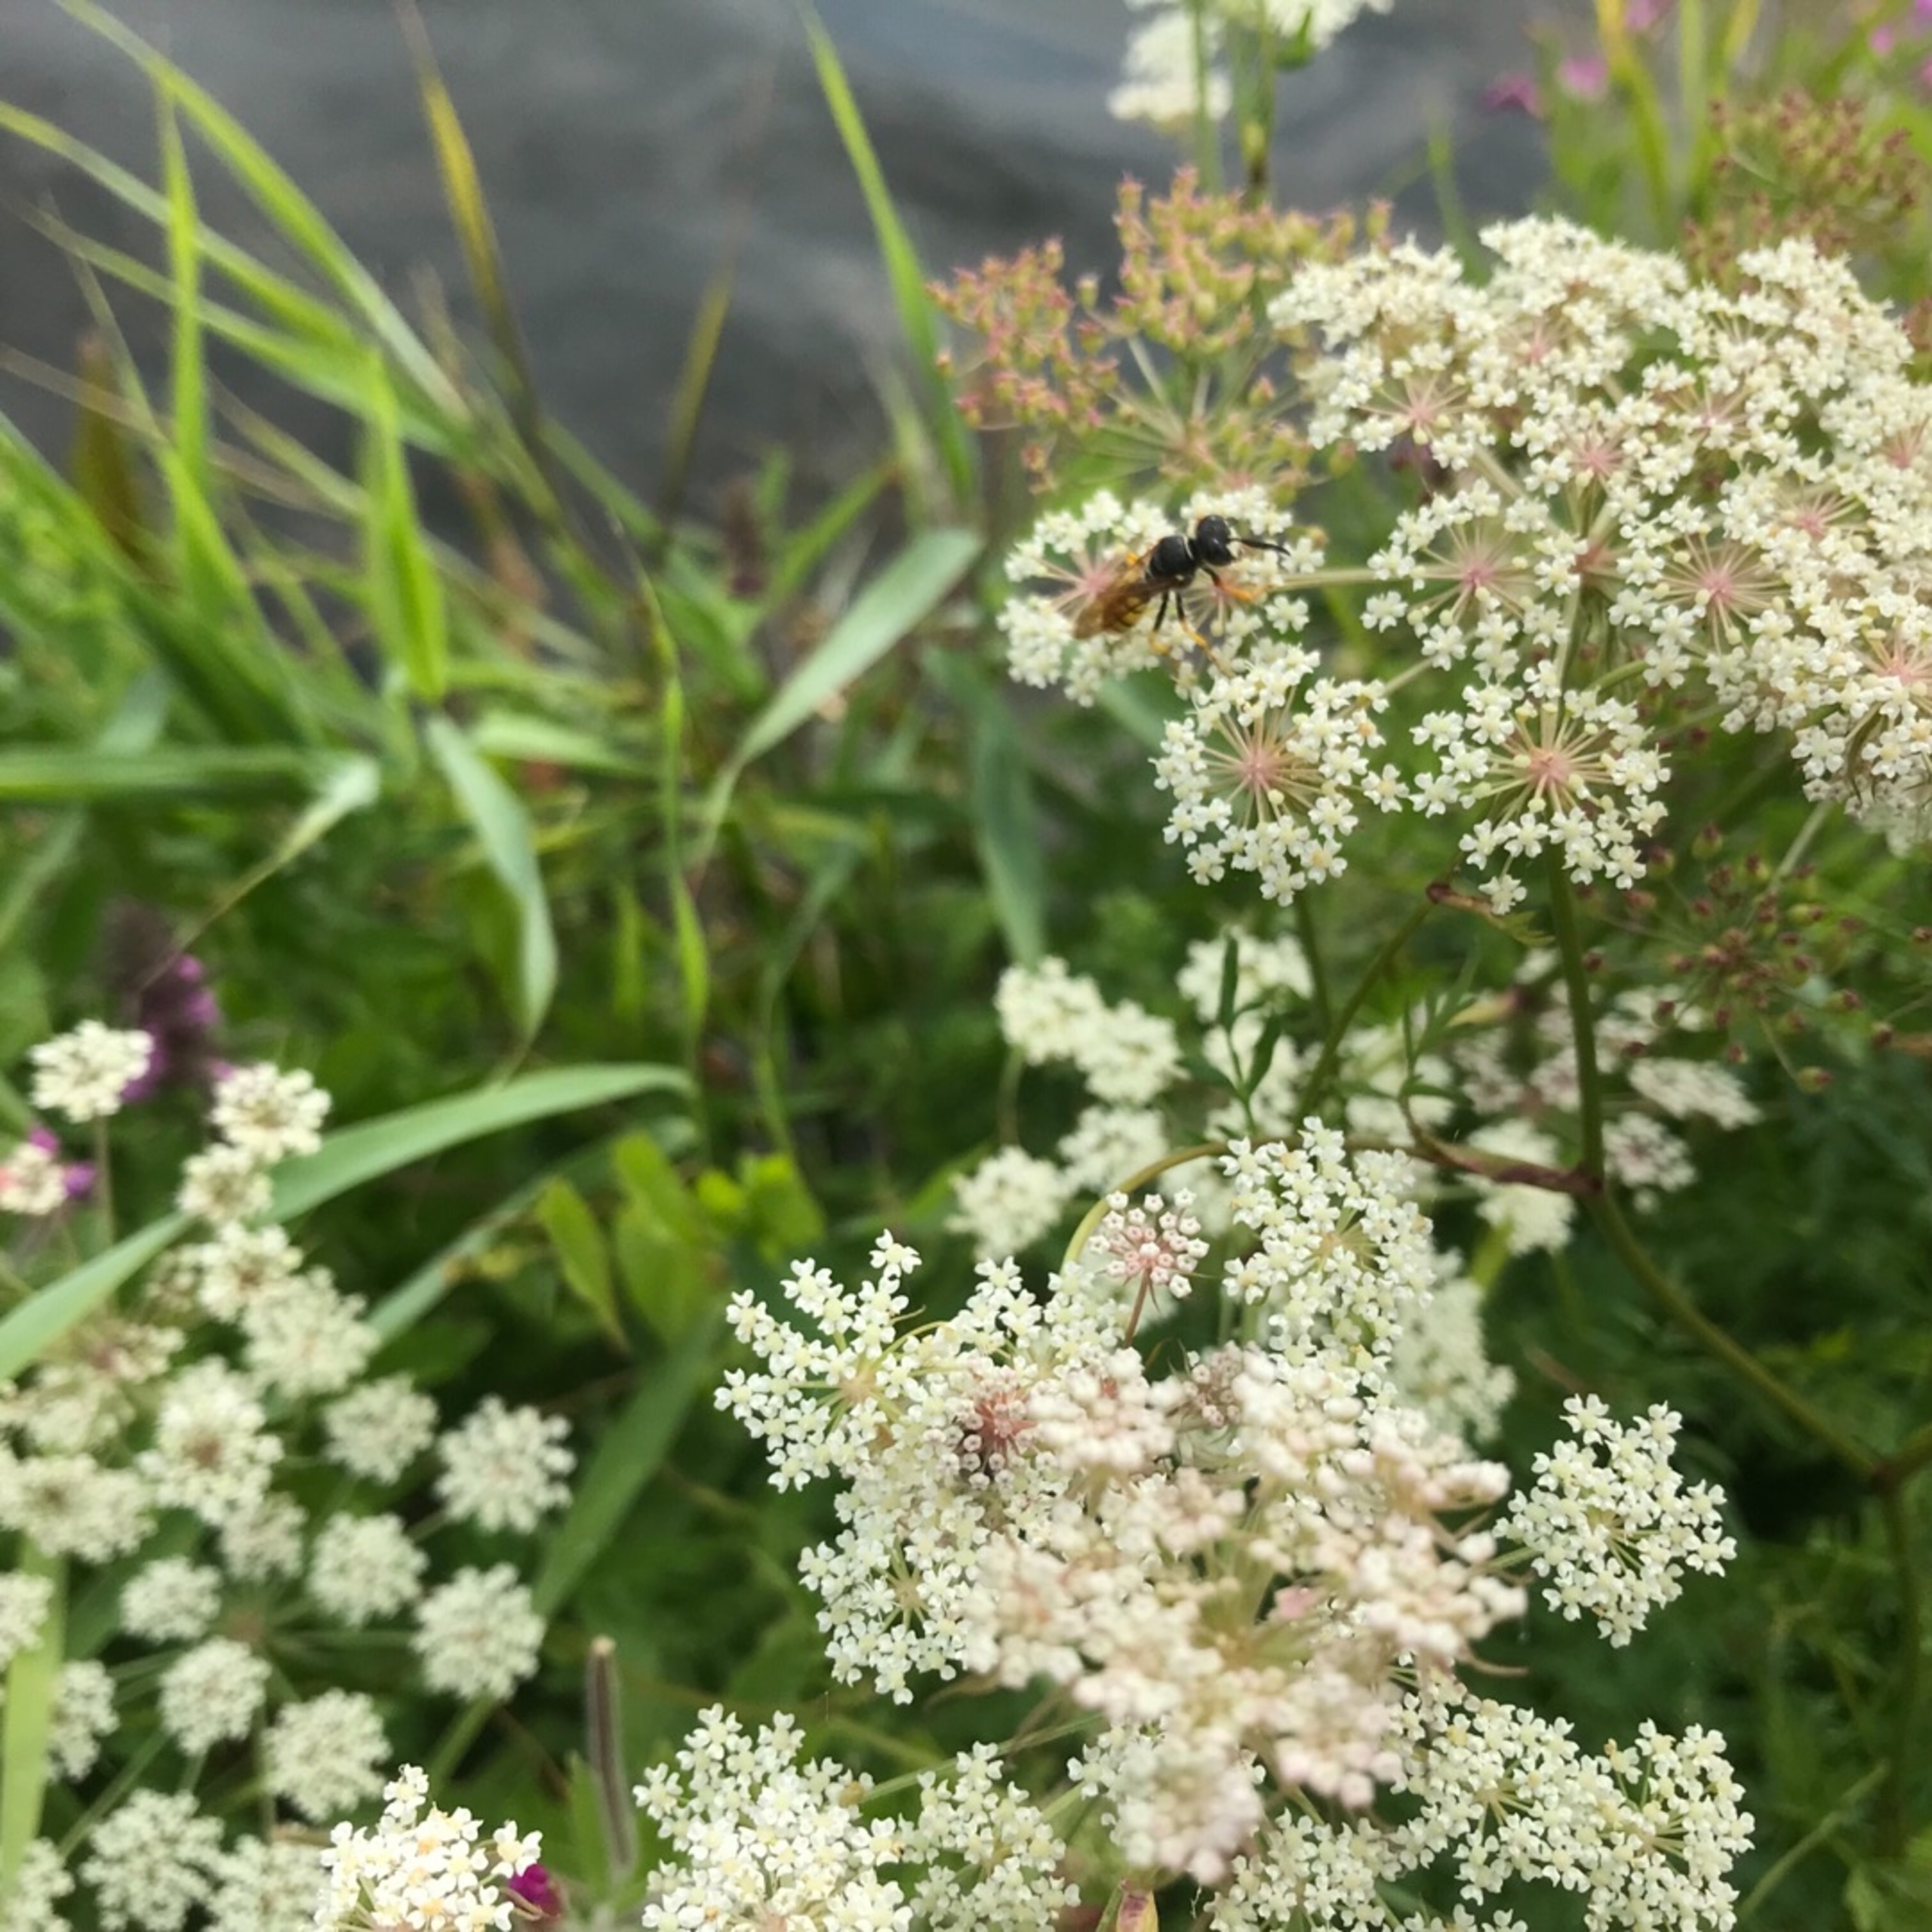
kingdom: Animalia
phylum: Arthropoda
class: Insecta
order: Hymenoptera
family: Crabronidae
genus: Philanthus
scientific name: Philanthus triangulum
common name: Biulv
